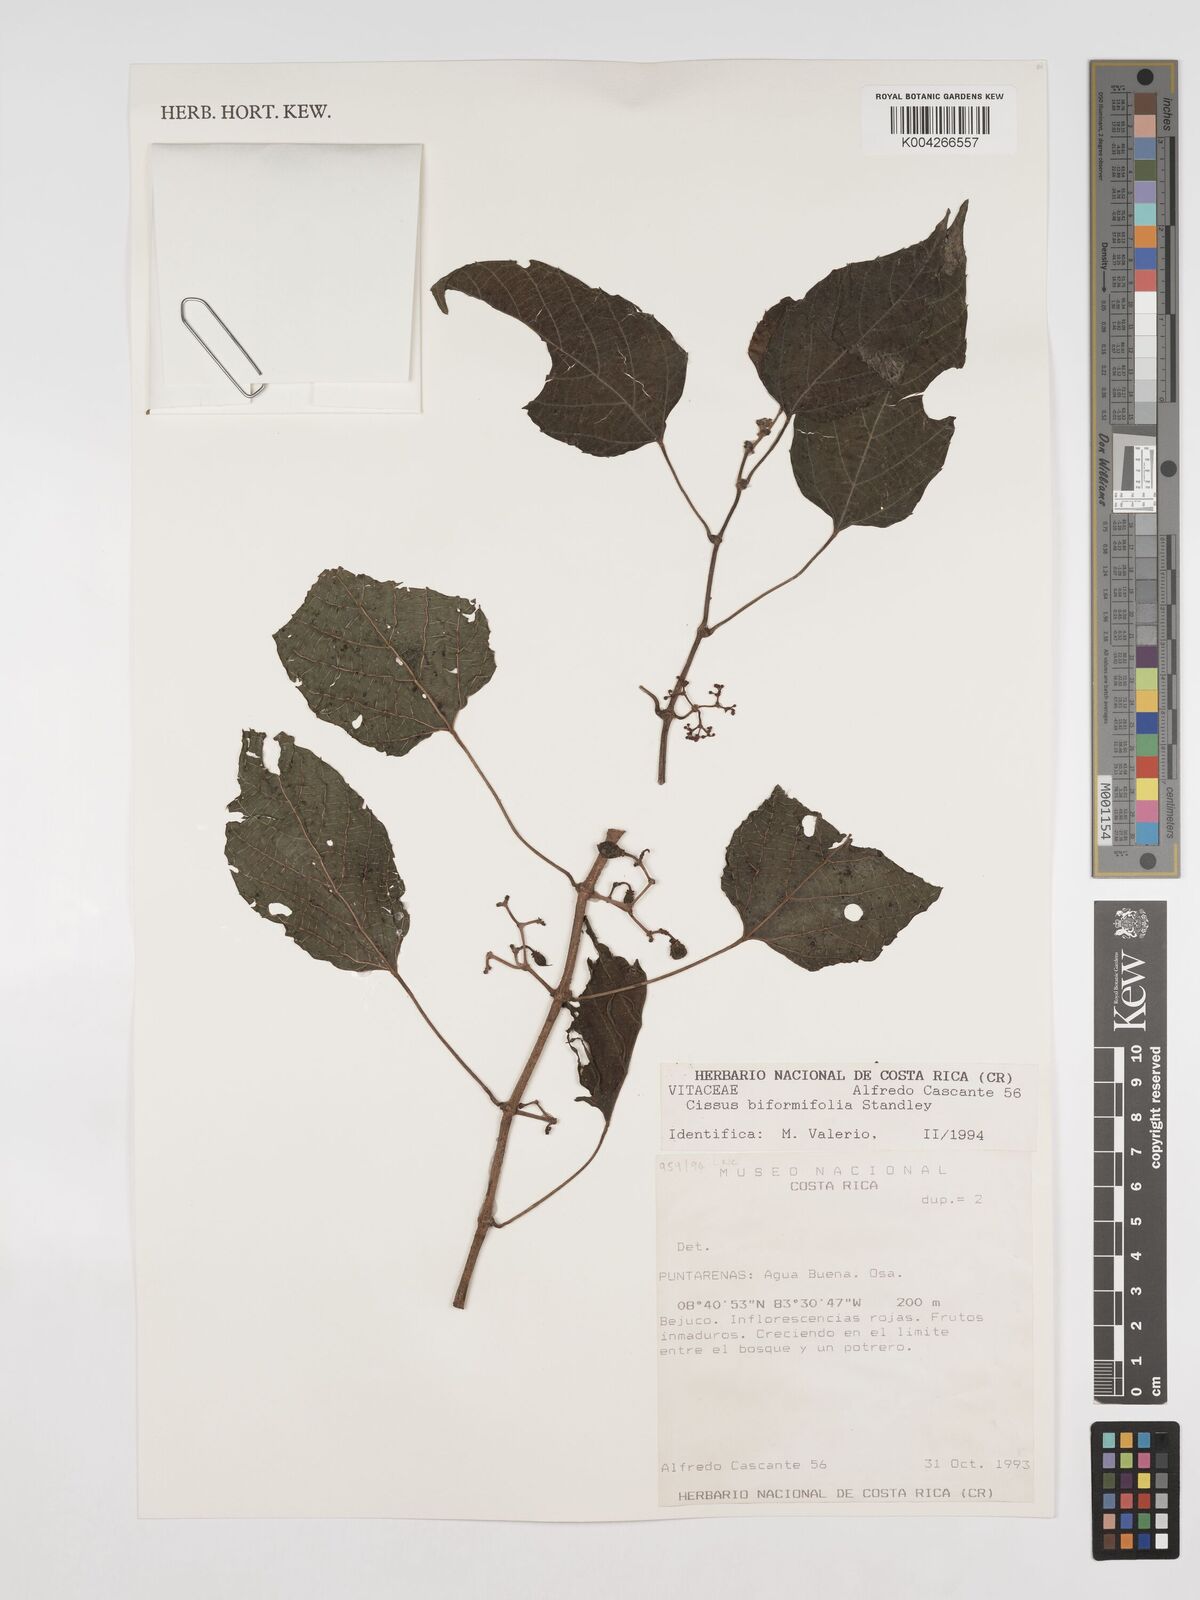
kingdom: Plantae
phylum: Tracheophyta
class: Magnoliopsida
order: Vitales
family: Vitaceae
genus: Cissus
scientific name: Cissus biformifolia
